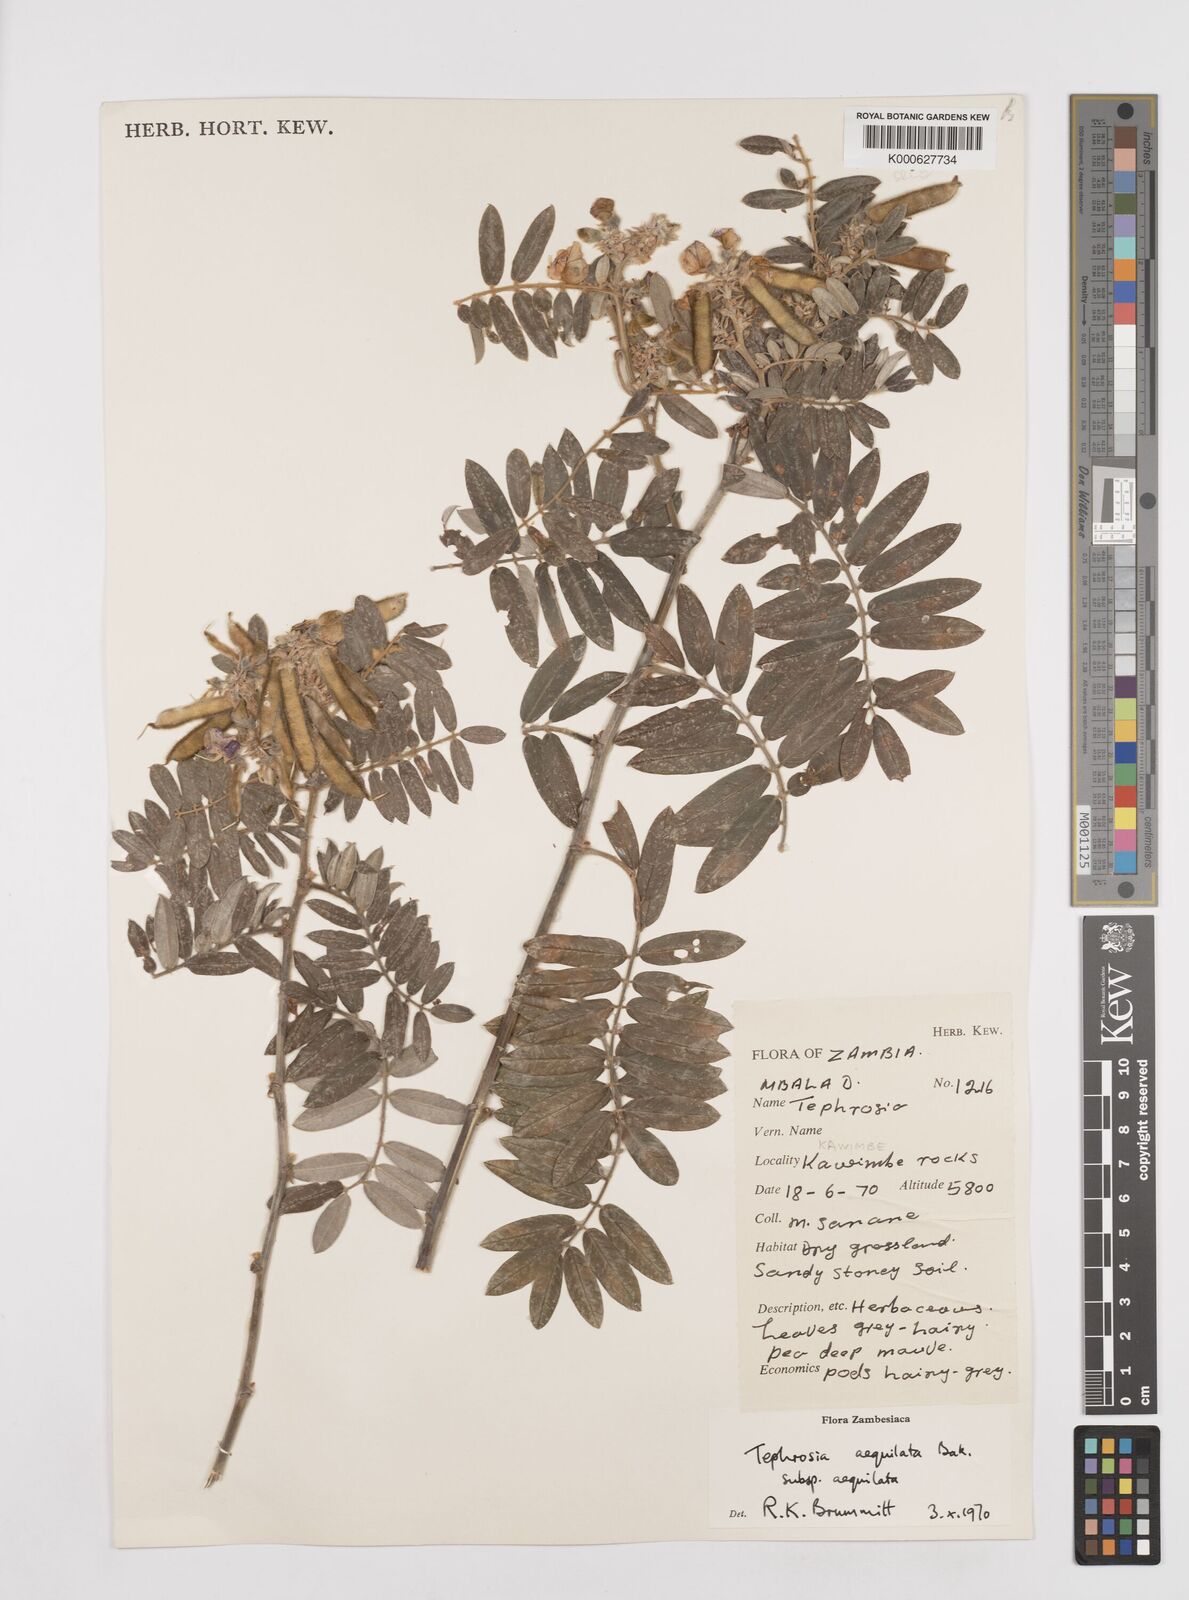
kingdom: Plantae
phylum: Tracheophyta
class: Magnoliopsida
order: Fabales
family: Fabaceae
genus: Tephrosia
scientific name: Tephrosia
